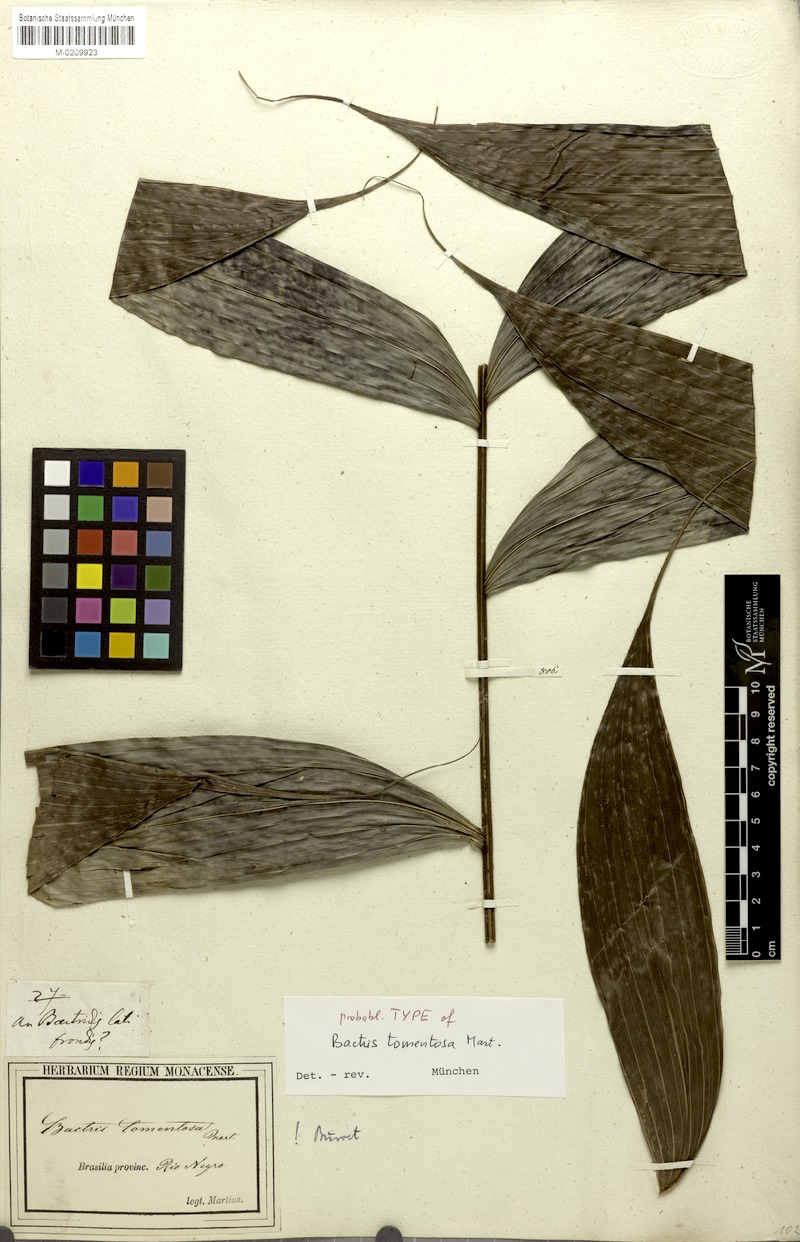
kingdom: Plantae
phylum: Tracheophyta
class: Liliopsida
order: Arecales
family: Arecaceae
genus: Bactris
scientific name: Bactris tomentosa
